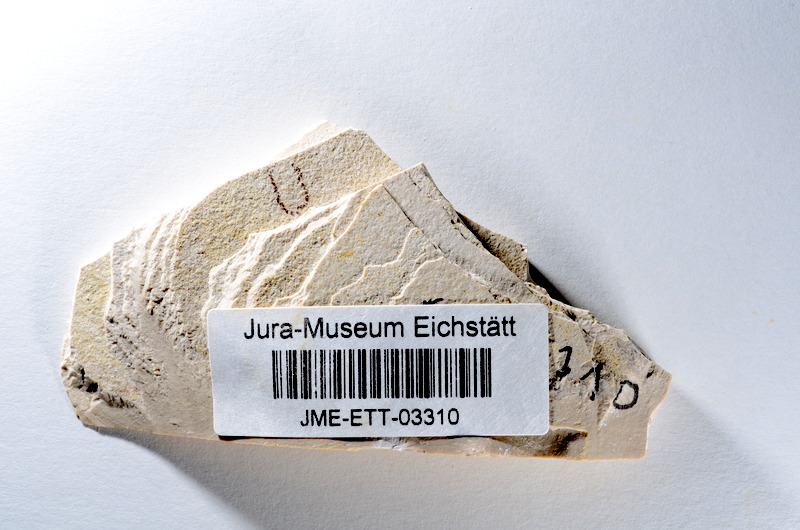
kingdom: Animalia
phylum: Chordata
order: Salmoniformes
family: Orthogonikleithridae
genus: Orthogonikleithrus
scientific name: Orthogonikleithrus hoelli
